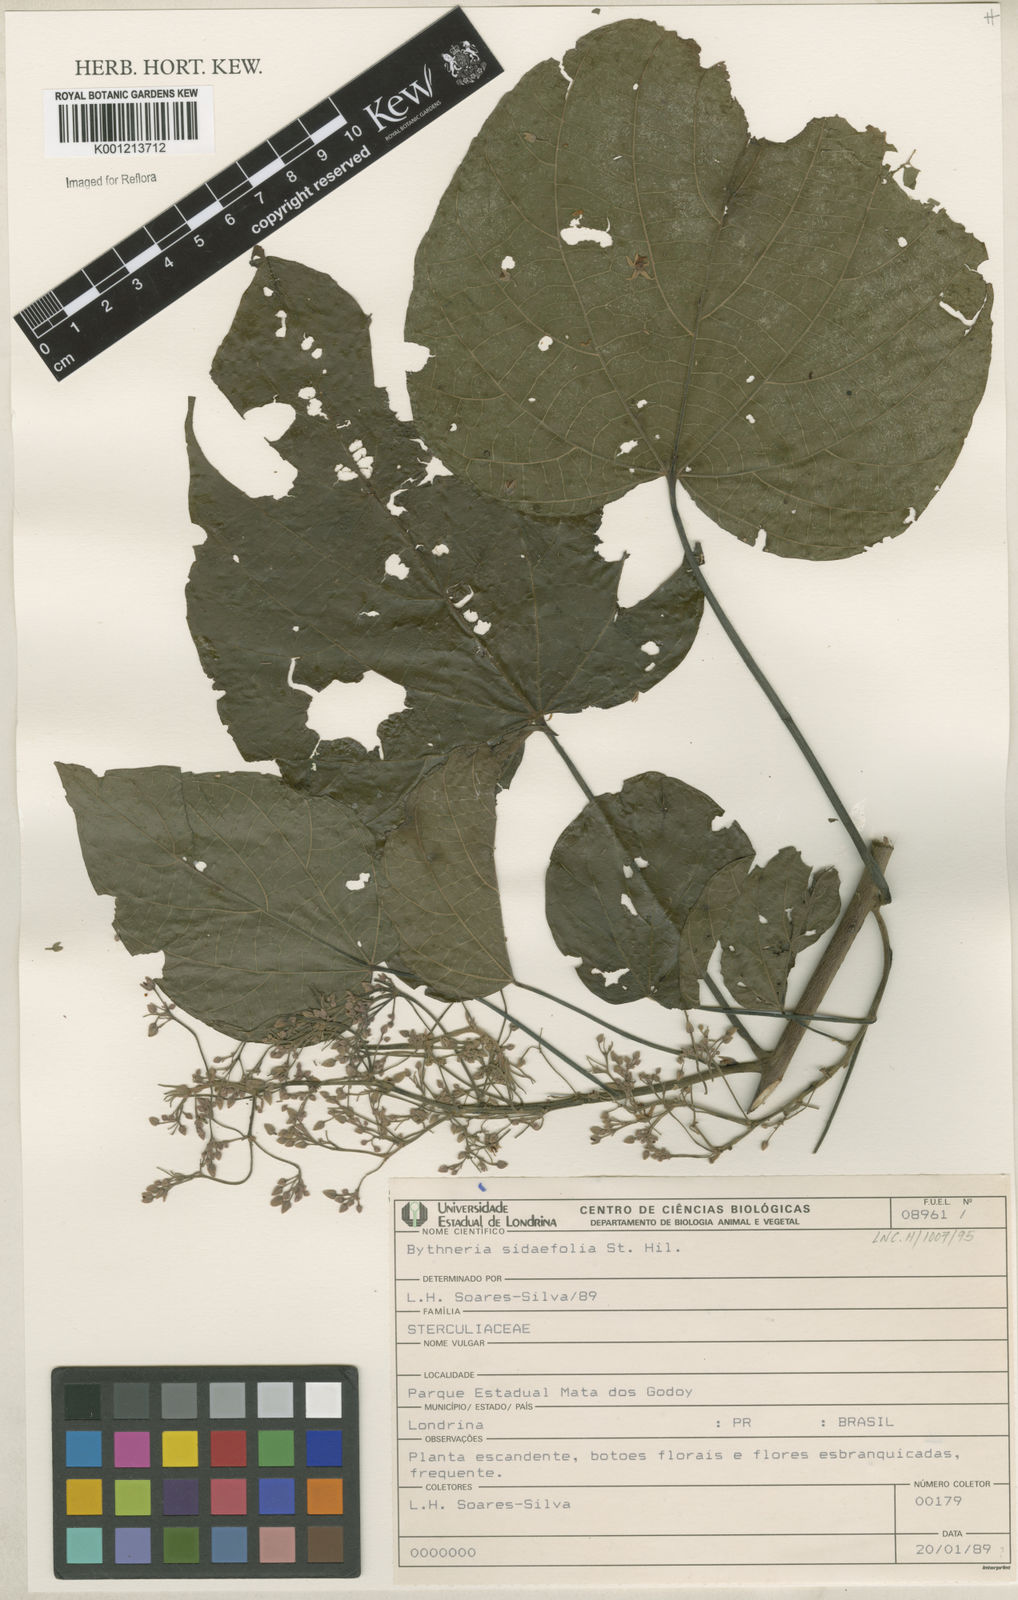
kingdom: Plantae
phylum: Tracheophyta
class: Magnoliopsida
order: Malvales
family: Malvaceae
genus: Byttneria
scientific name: Byttneria catalpifolia
